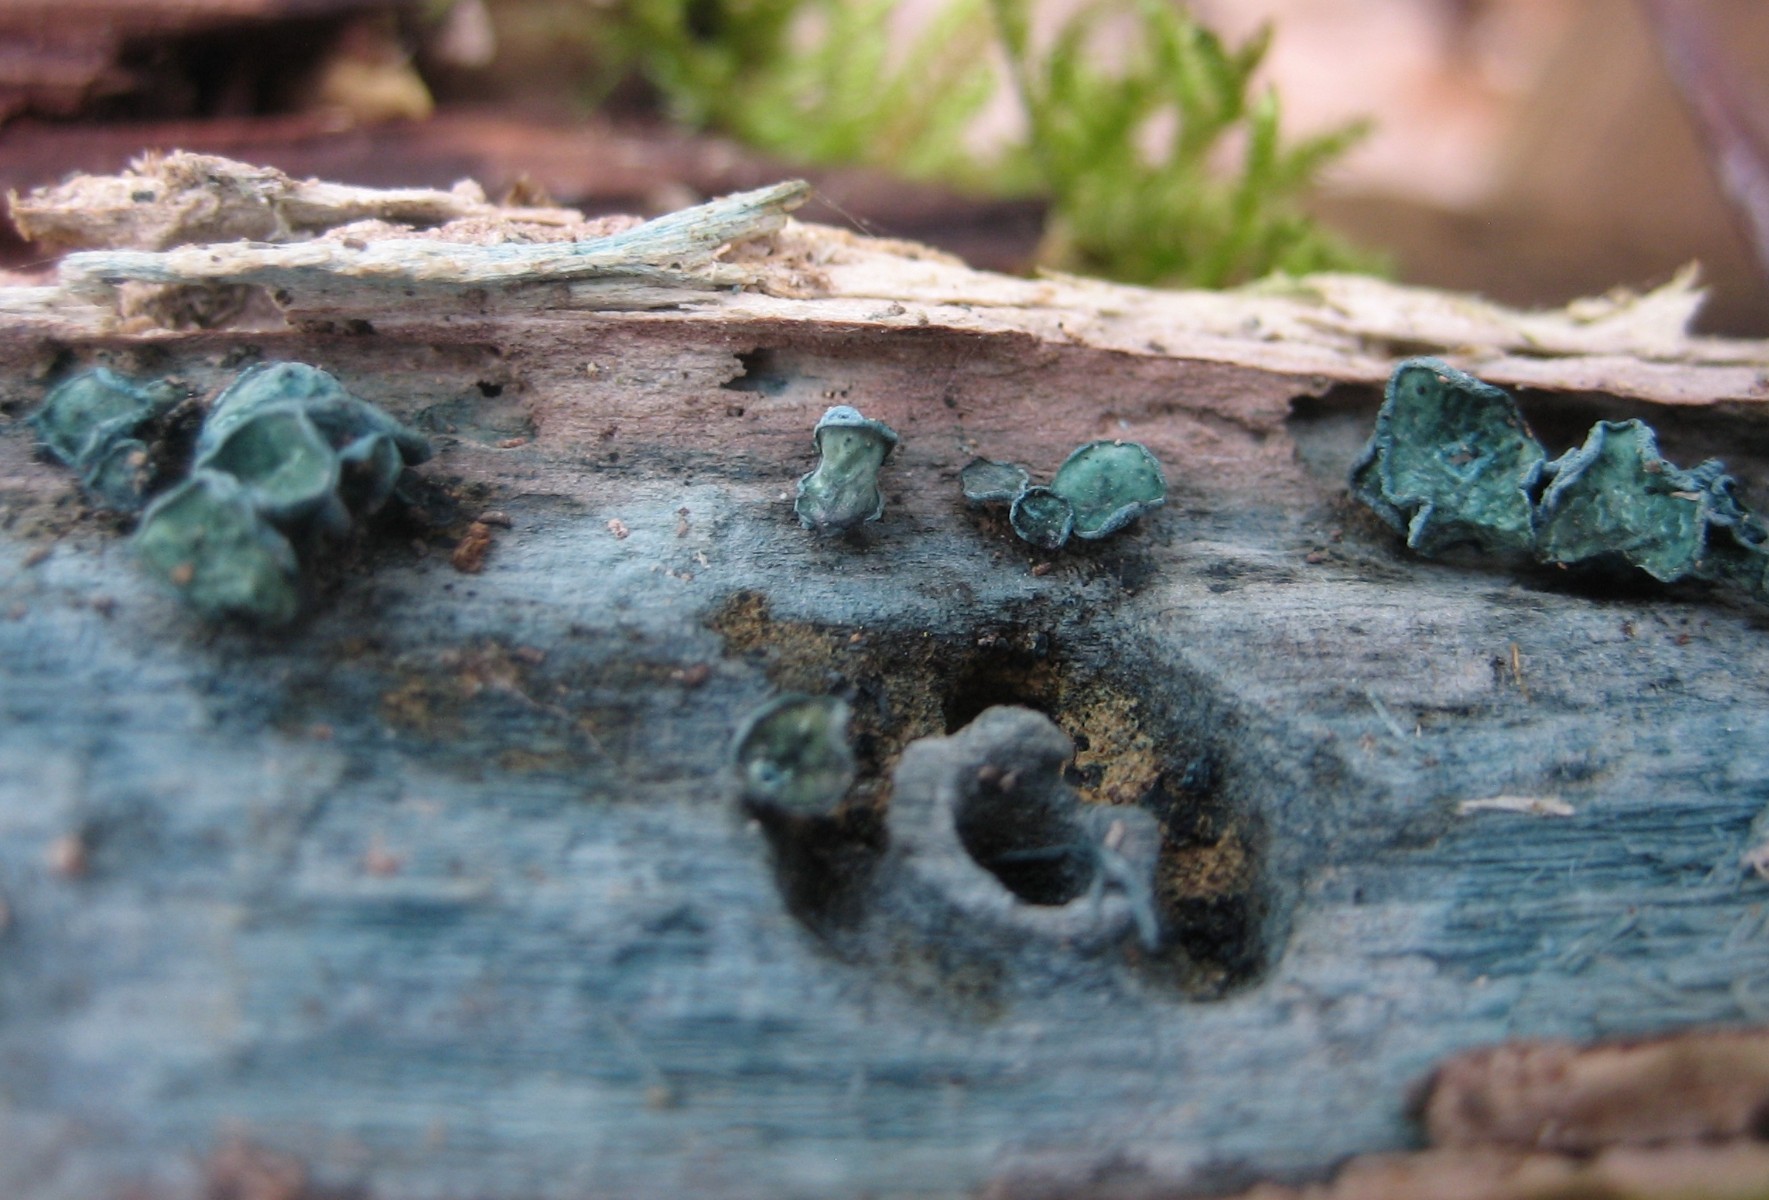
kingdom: Fungi
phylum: Ascomycota
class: Leotiomycetes
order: Helotiales
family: Chlorociboriaceae
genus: Chlorociboria
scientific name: Chlorociboria aeruginascens
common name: almindelig grønskive
